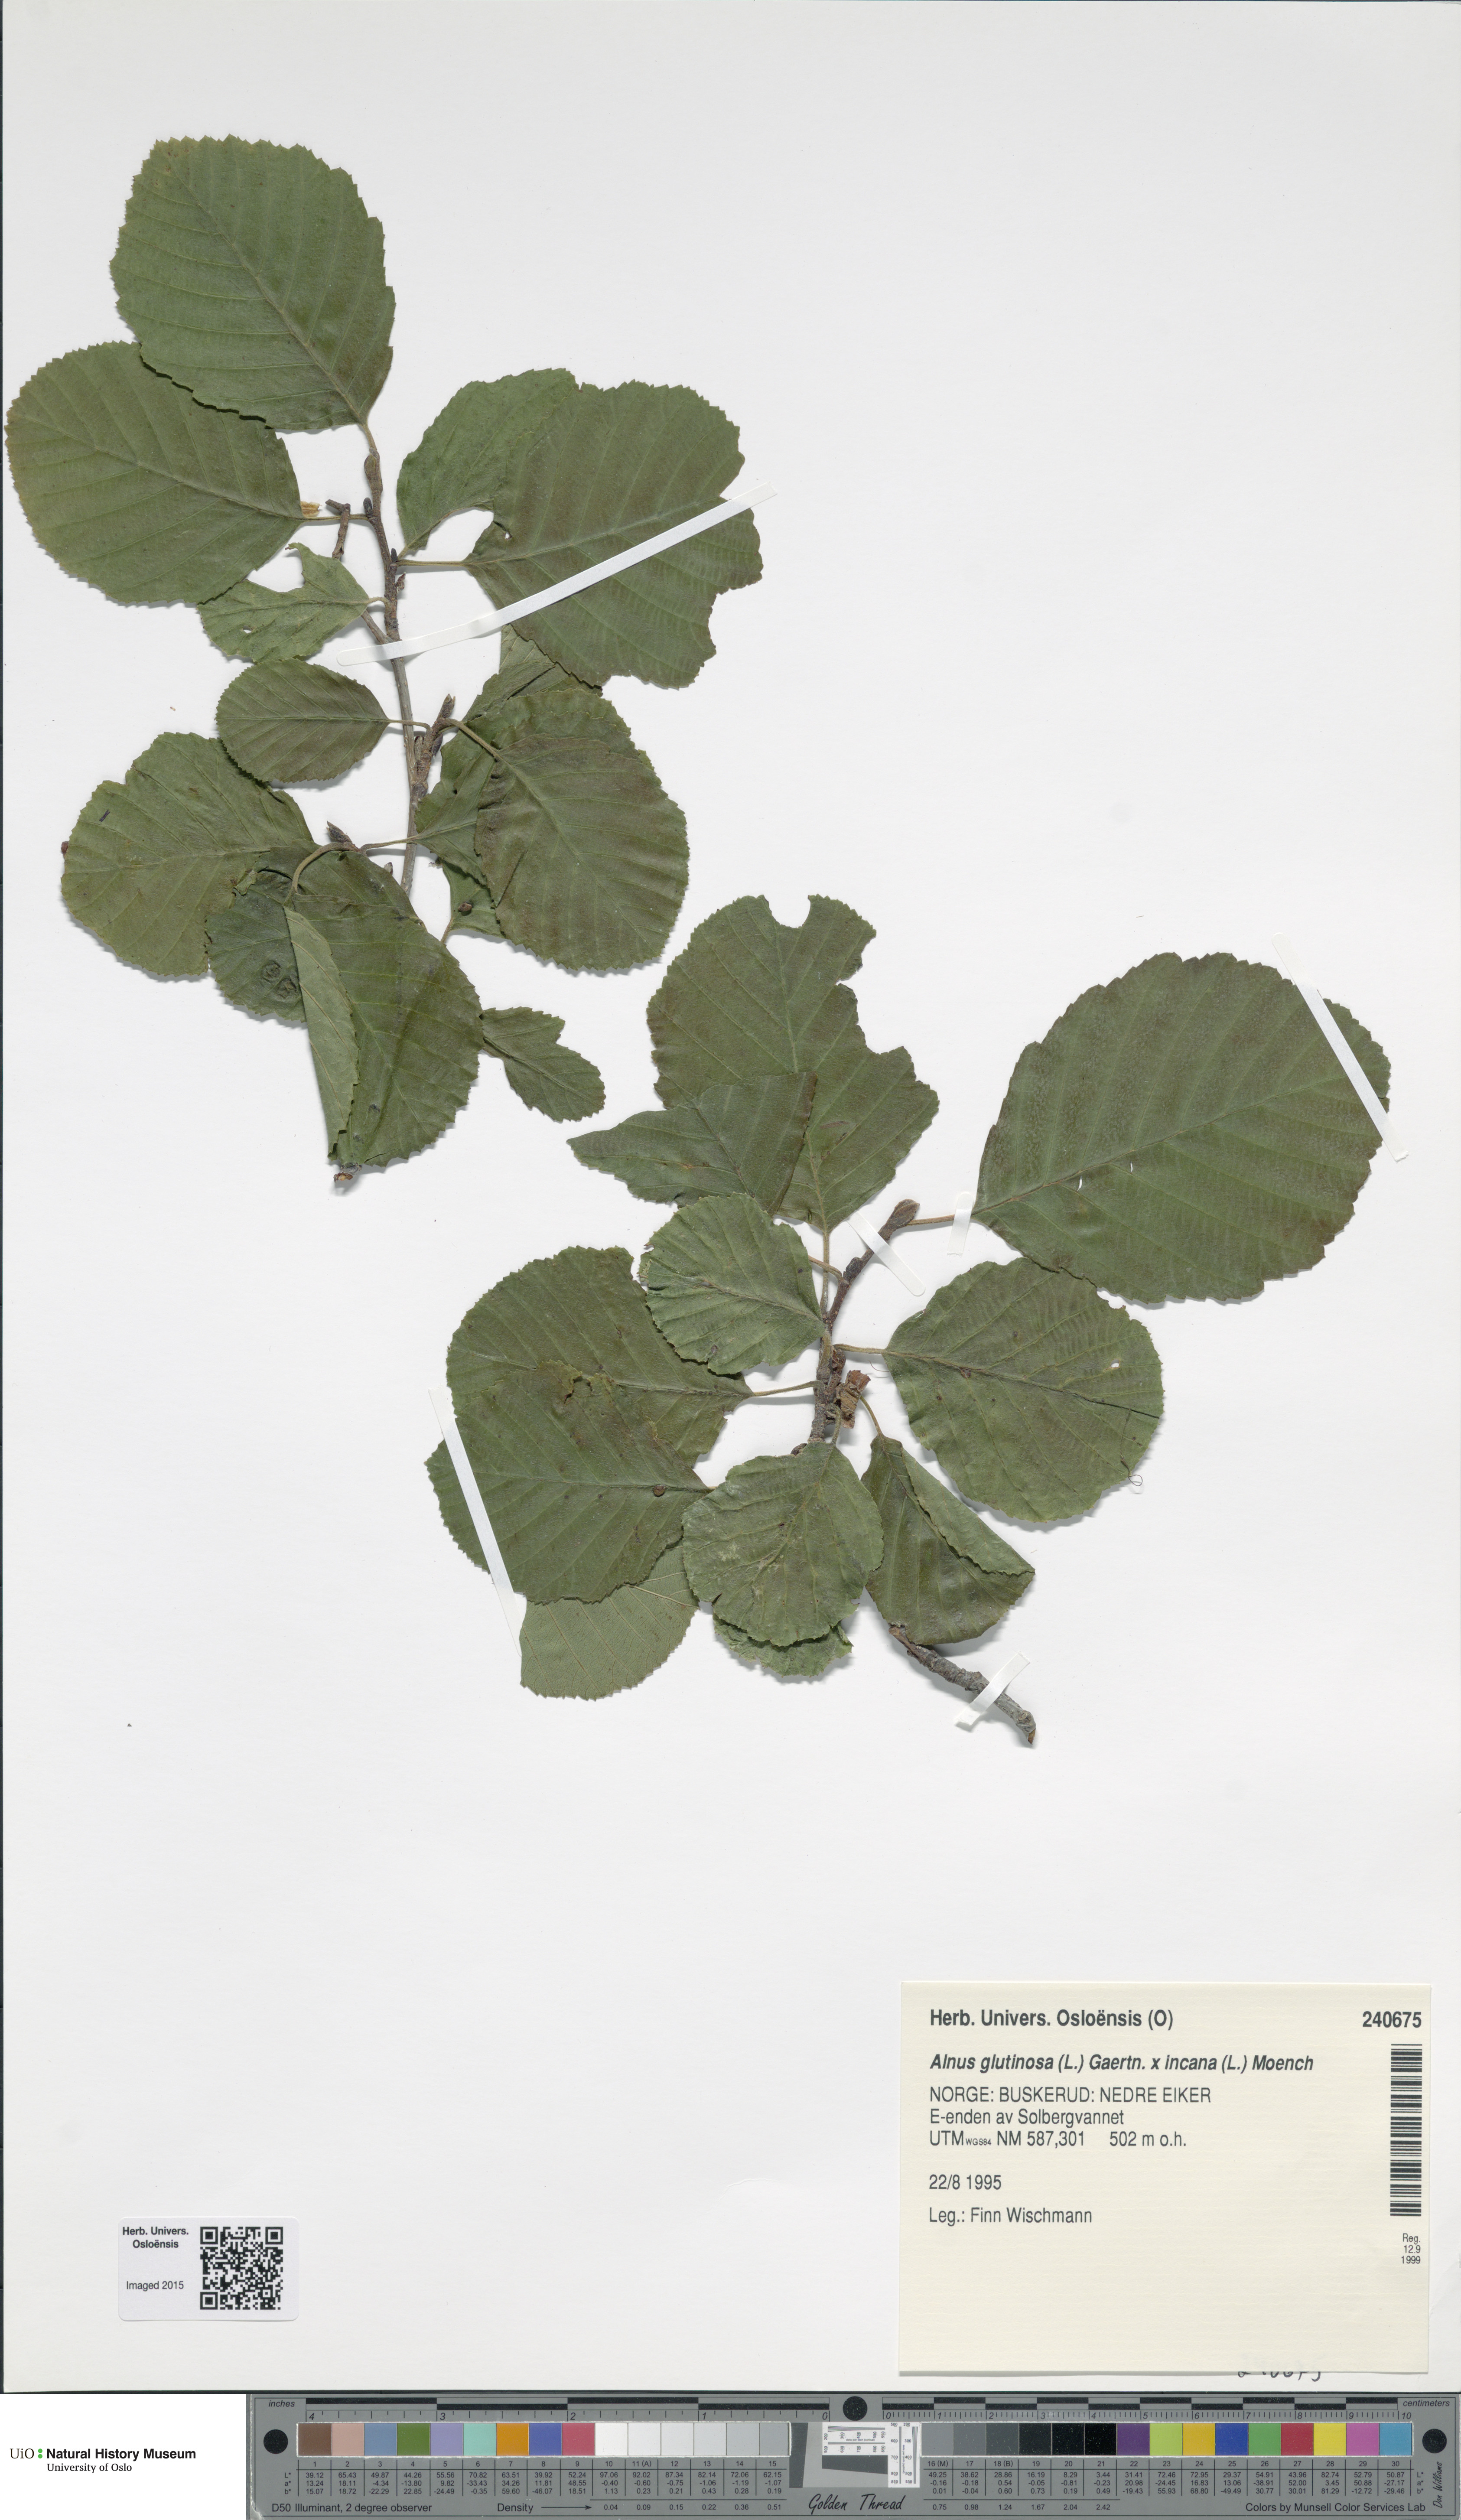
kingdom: Plantae
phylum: Tracheophyta
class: Magnoliopsida
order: Fagales
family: Betulaceae
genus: Alnus
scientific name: Alnus
